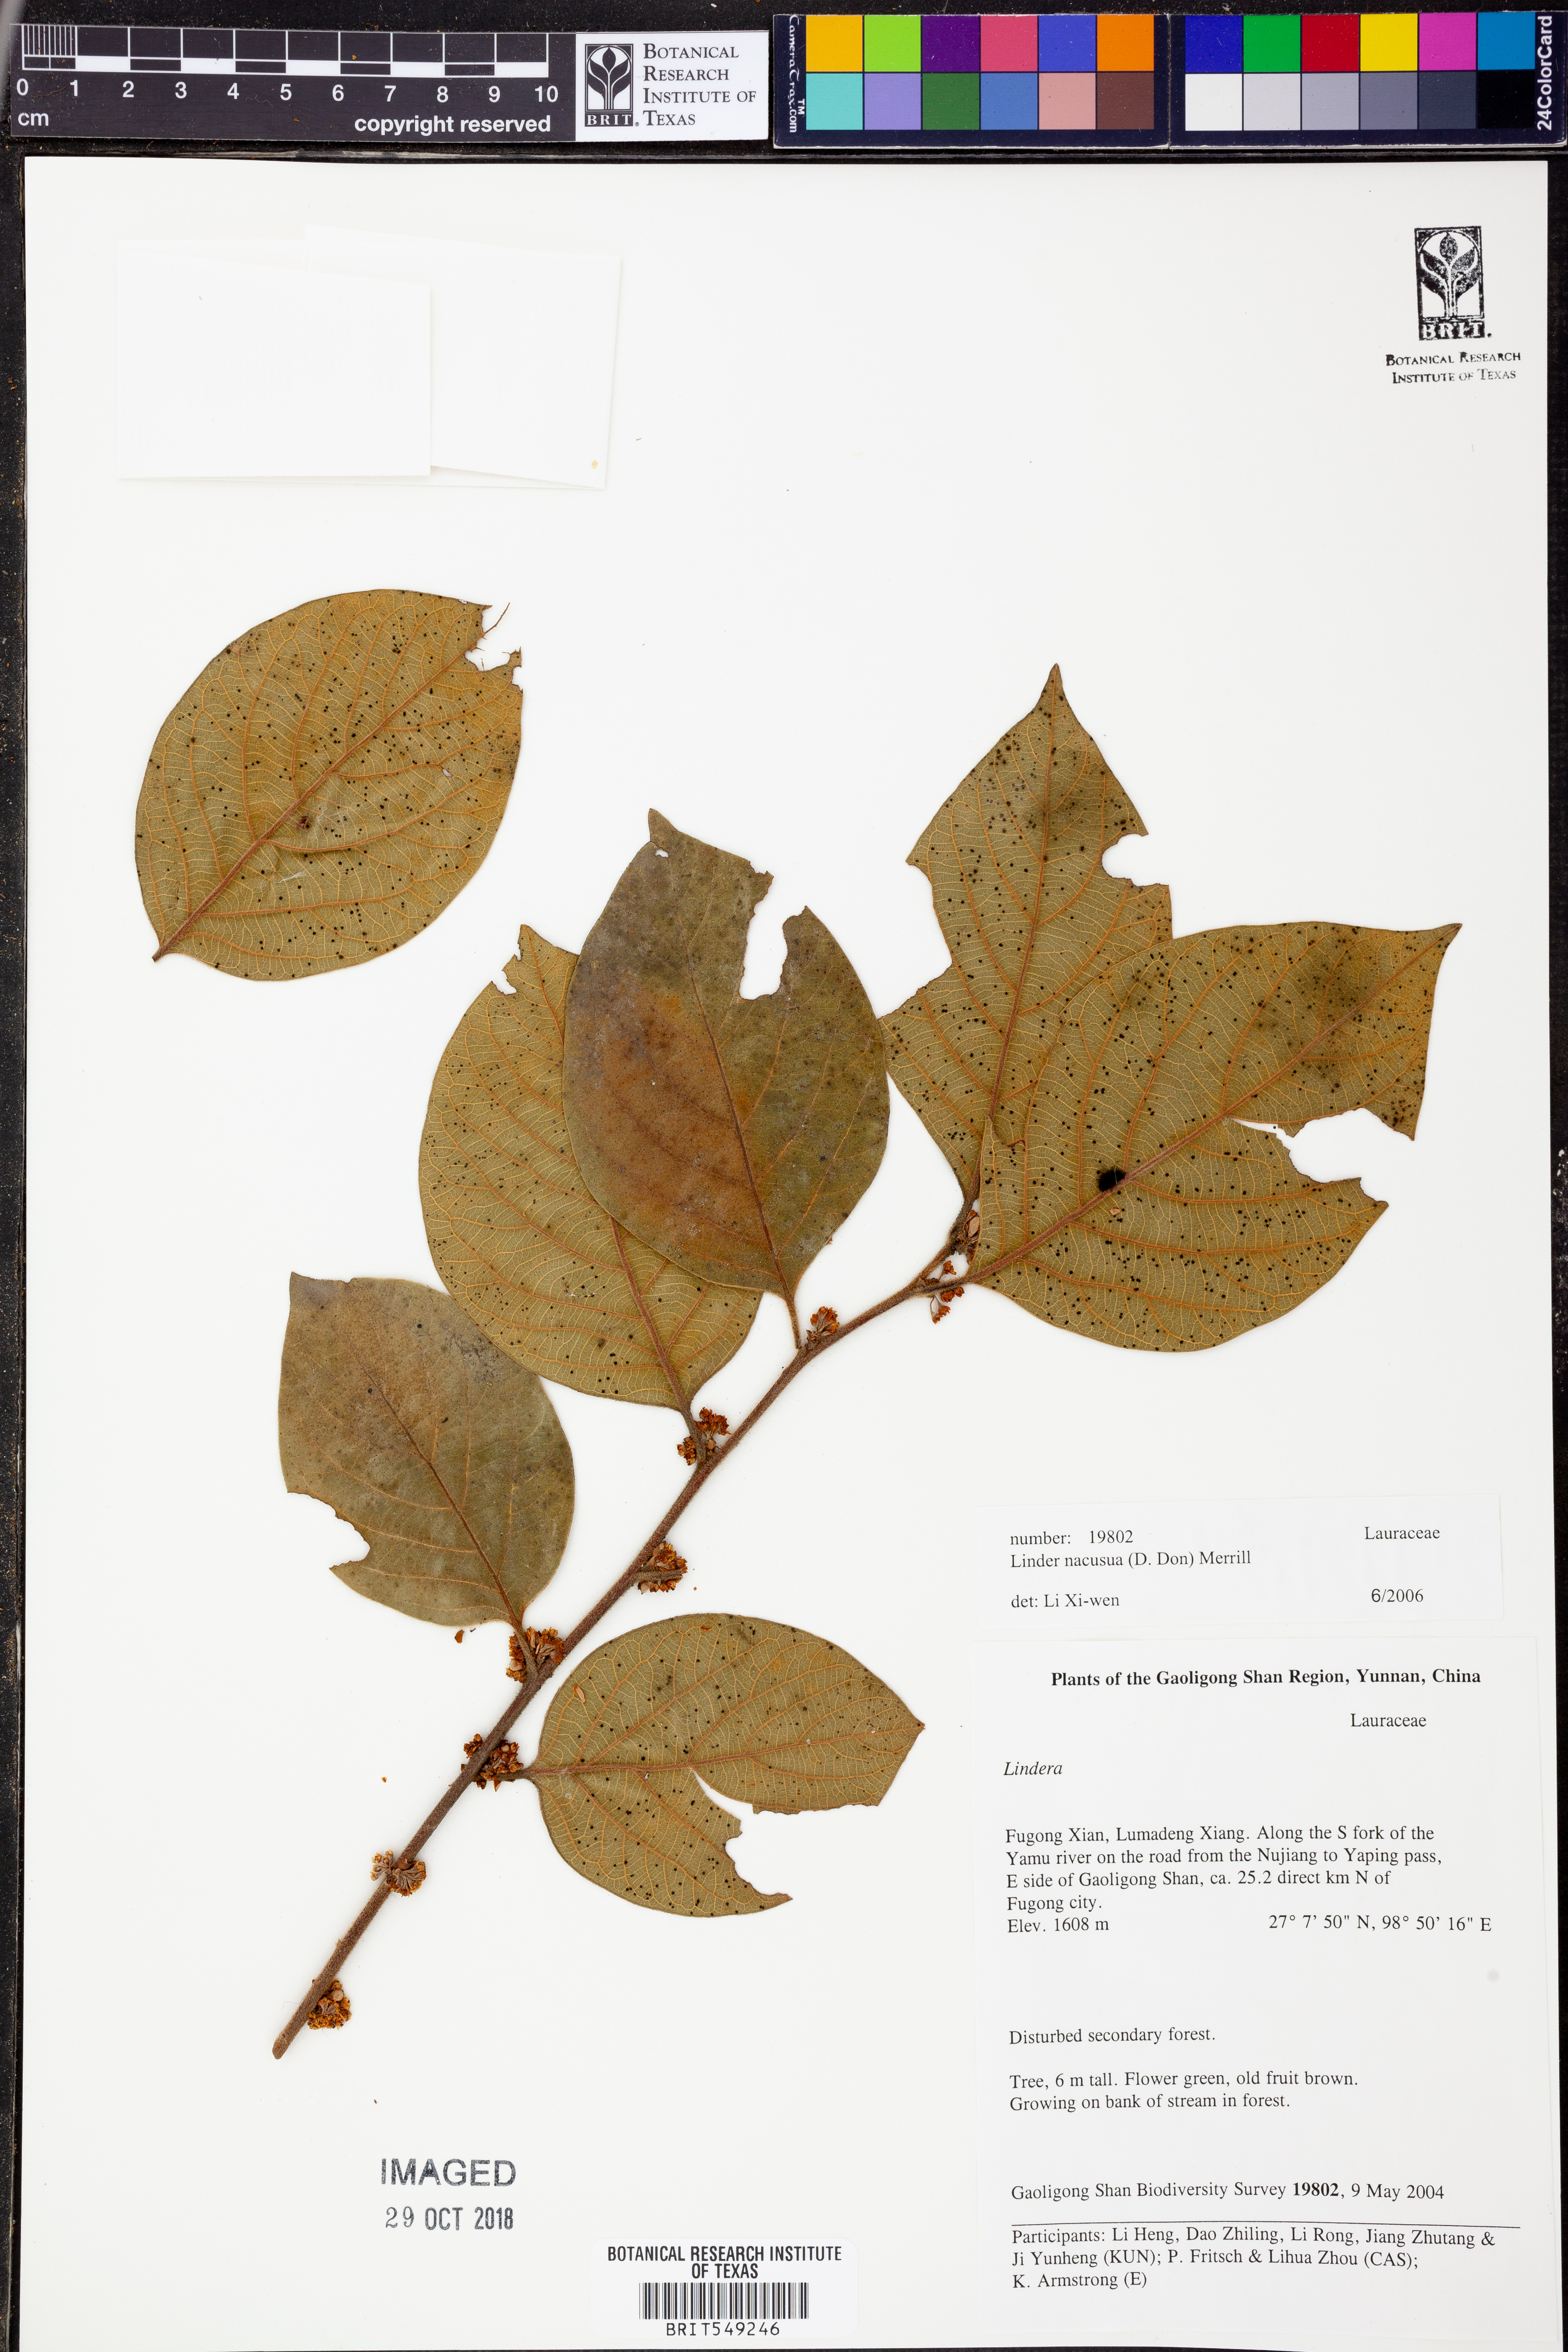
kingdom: Plantae
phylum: Tracheophyta
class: Magnoliopsida
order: Laurales
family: Lauraceae
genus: Lindera
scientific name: Lindera nacusua
